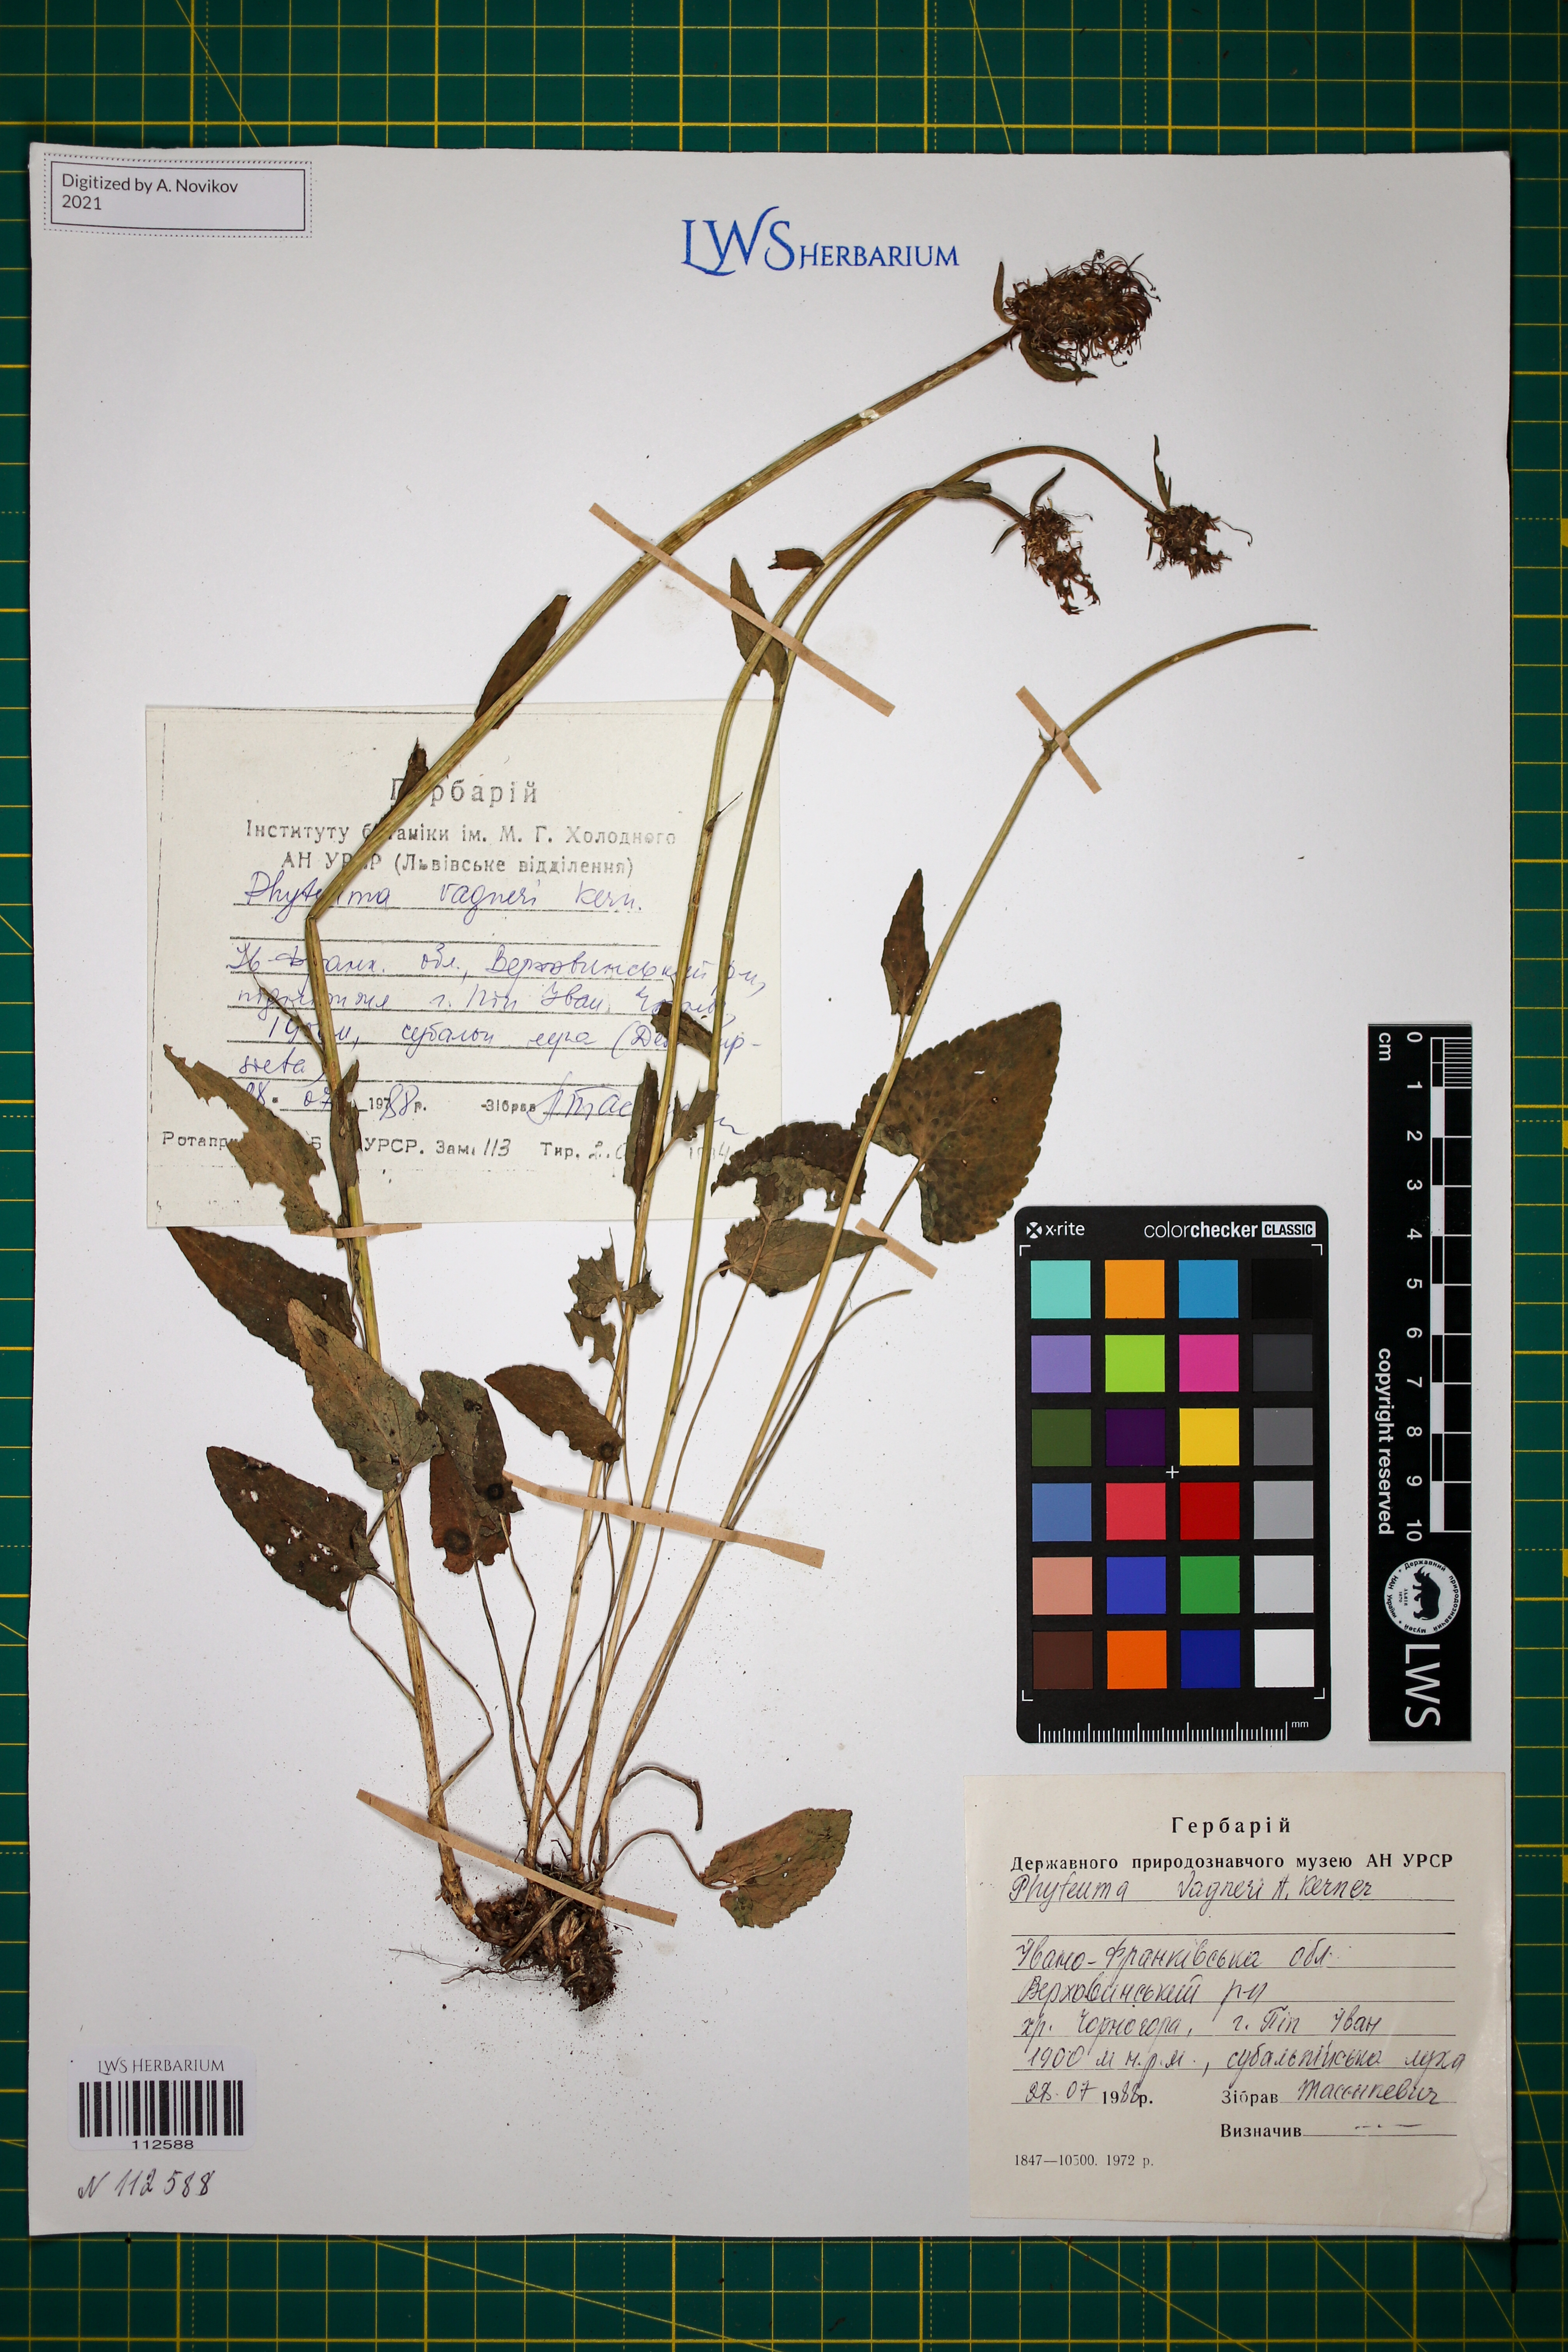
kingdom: Plantae
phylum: Tracheophyta
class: Magnoliopsida
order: Asterales
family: Campanulaceae
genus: Phyteuma
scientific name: Phyteuma vagneri
